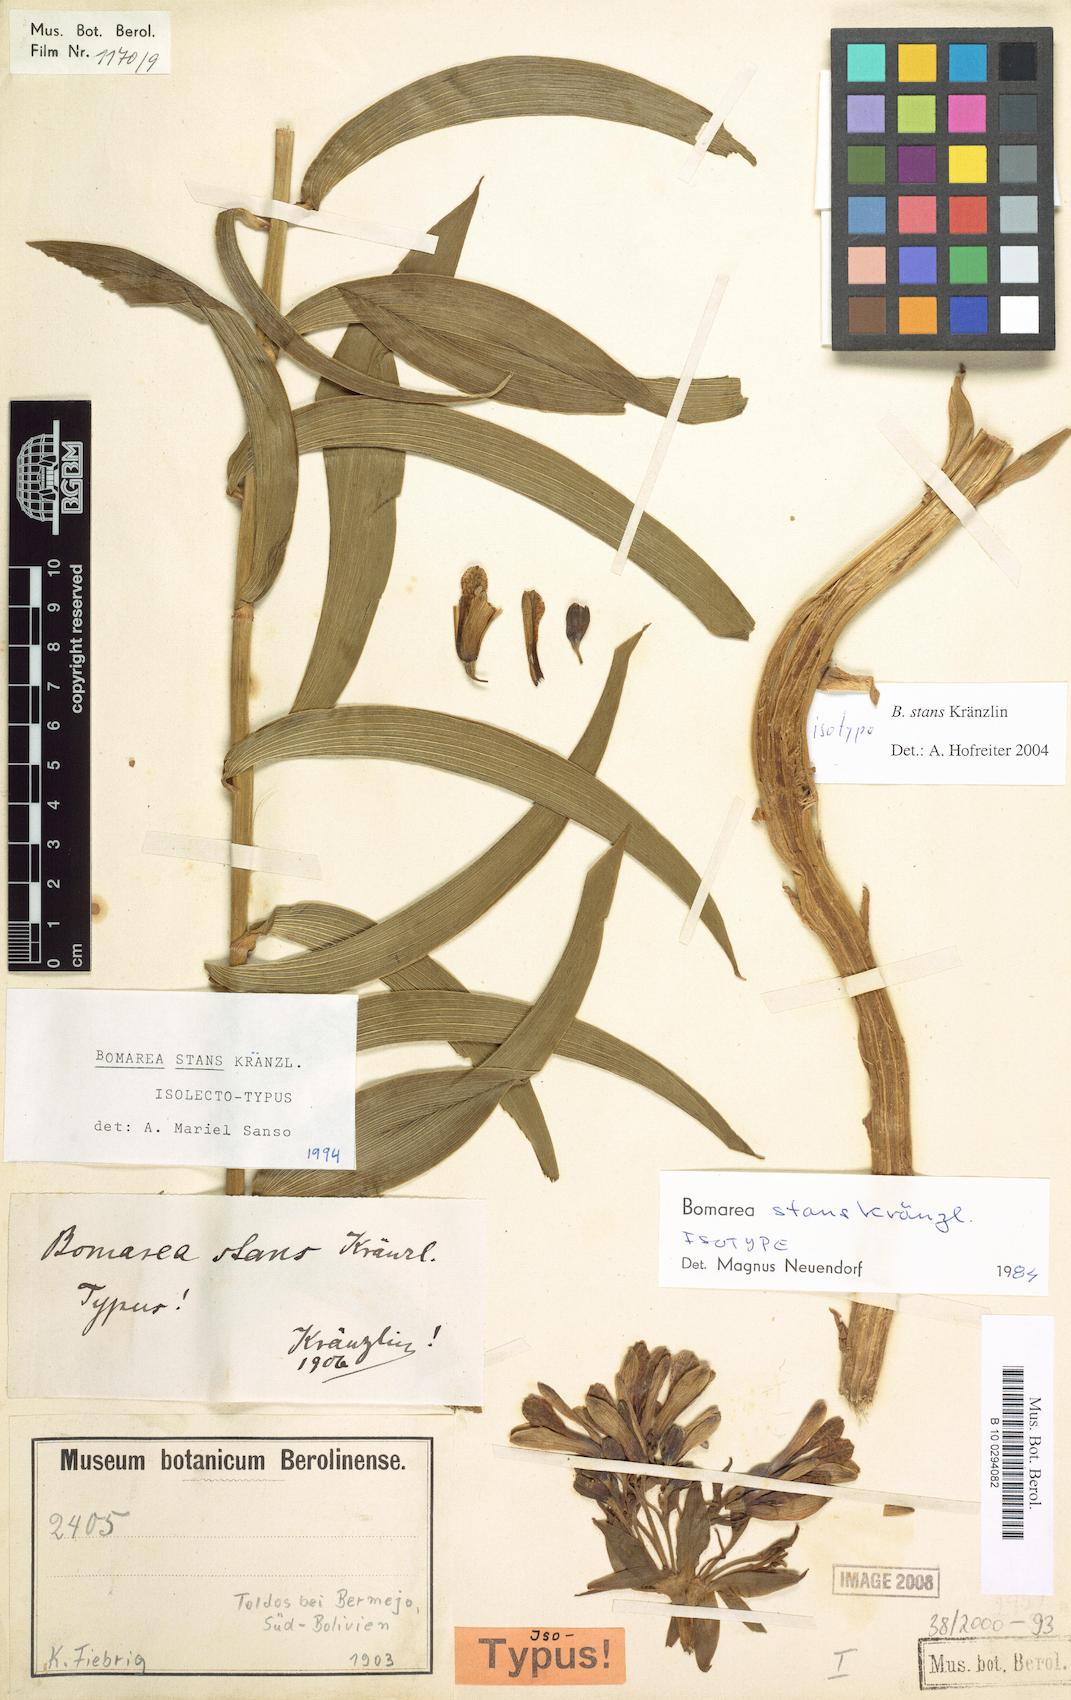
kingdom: Plantae
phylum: Tracheophyta
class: Liliopsida
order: Liliales
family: Alstroemeriaceae
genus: Bomarea
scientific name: Bomarea stans
